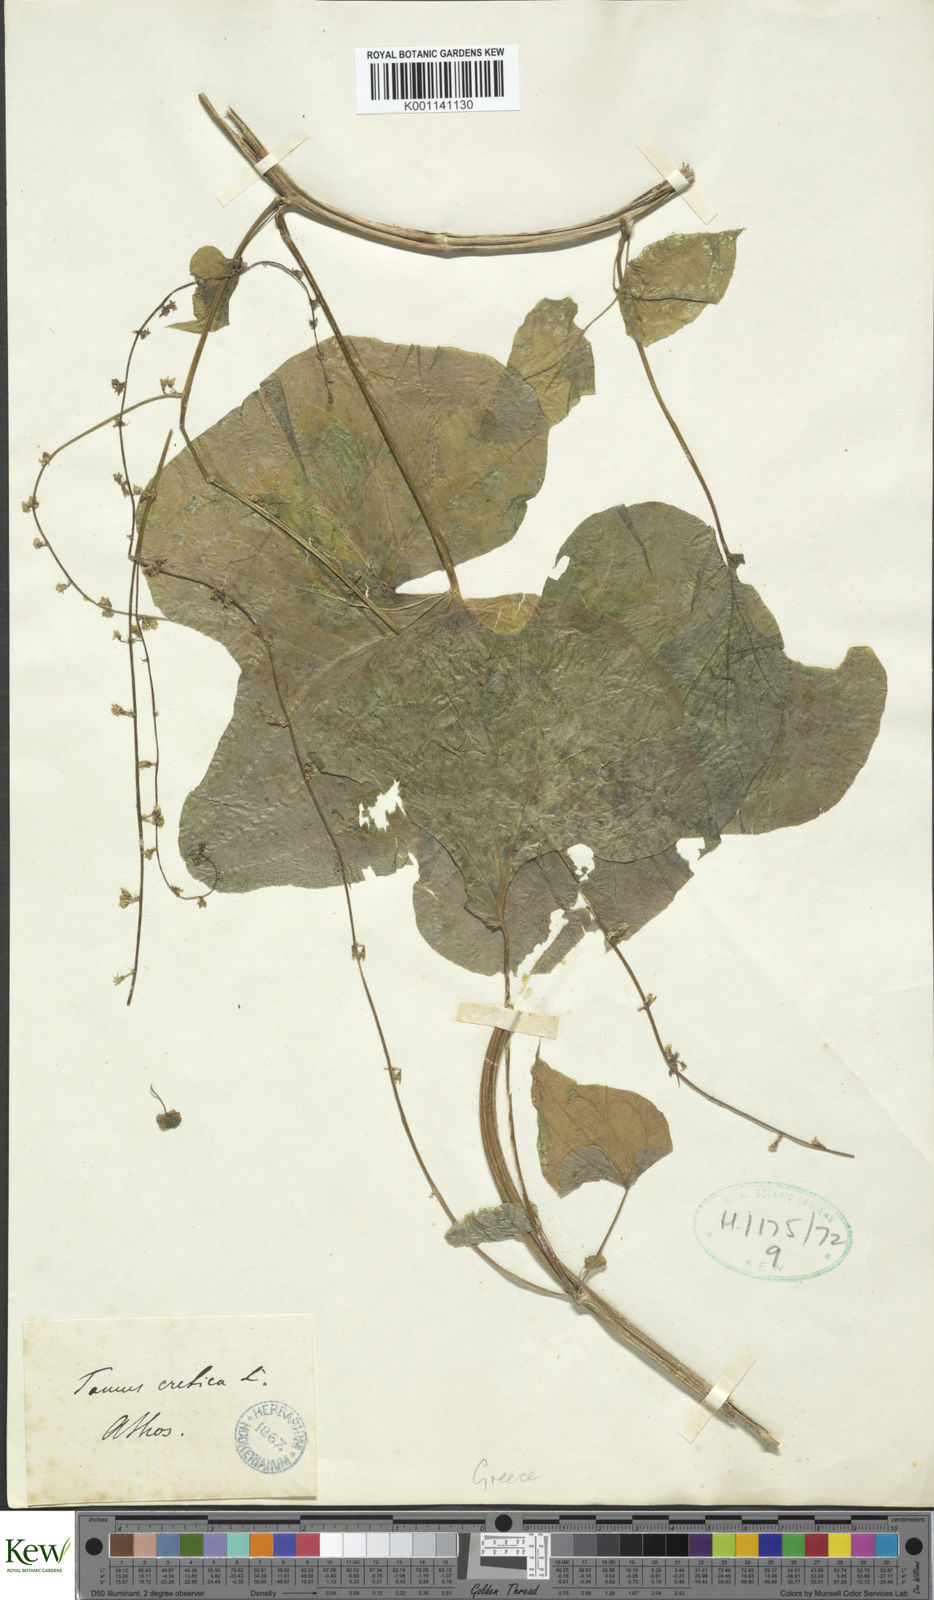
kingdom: Plantae
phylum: Tracheophyta
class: Liliopsida
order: Dioscoreales
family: Dioscoreaceae
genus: Dioscorea
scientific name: Dioscorea communis
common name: Black-bindweed
